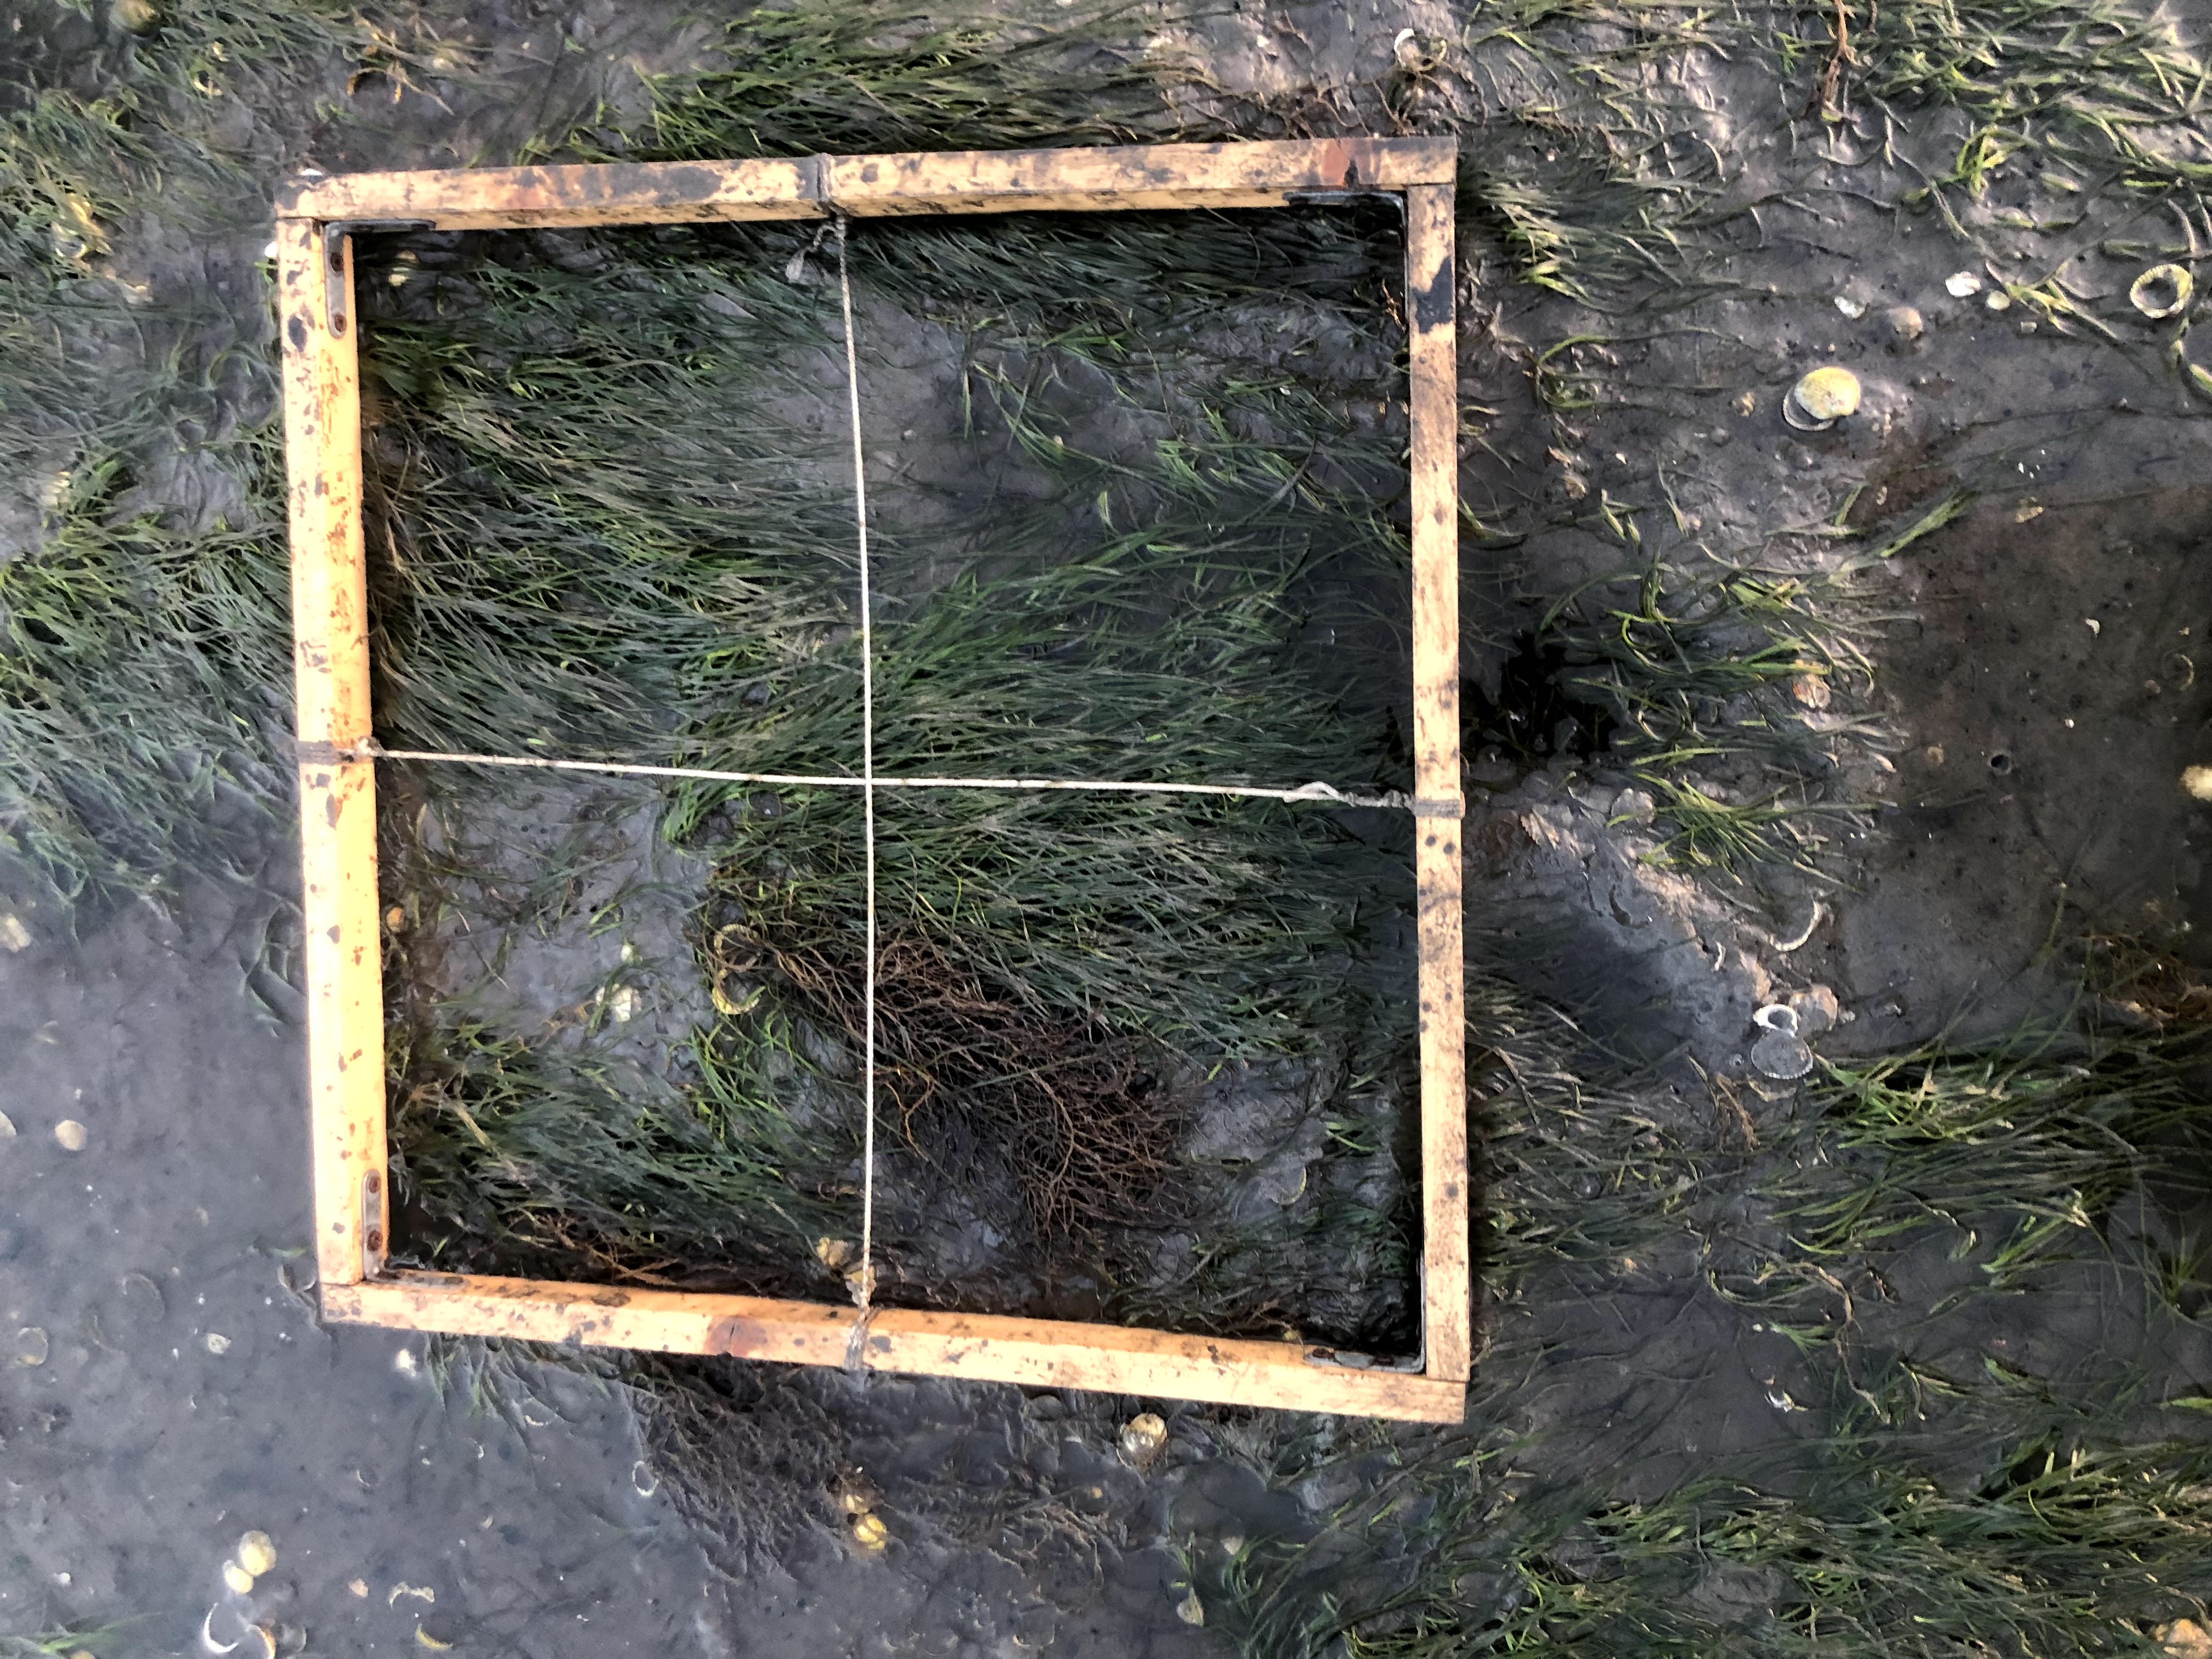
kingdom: Plantae
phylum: Rhodophyta
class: Florideophyceae
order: Gracilariales
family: Gracilariaceae
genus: Gracilaria
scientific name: Gracilaria vermiculophylla
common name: Algae
